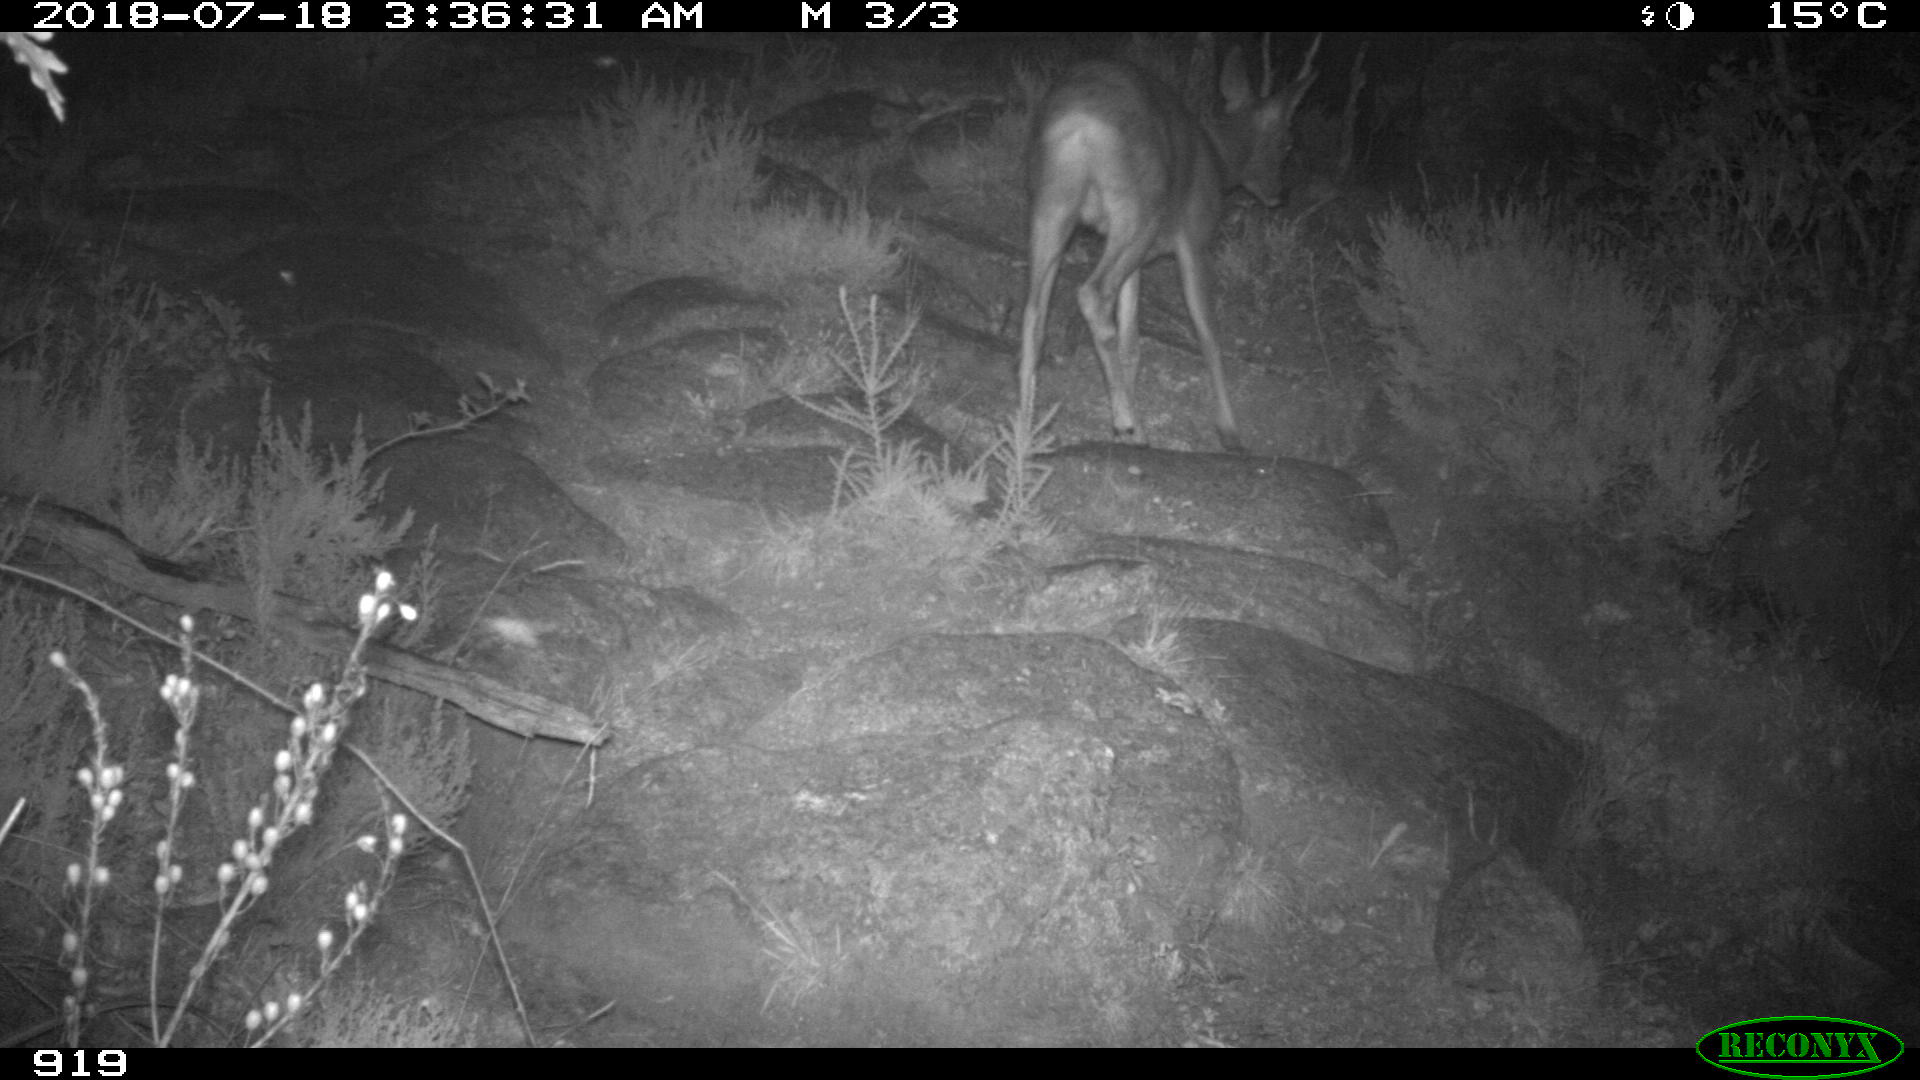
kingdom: Animalia
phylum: Chordata
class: Mammalia
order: Artiodactyla
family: Cervidae
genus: Capreolus
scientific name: Capreolus capreolus
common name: Western roe deer
